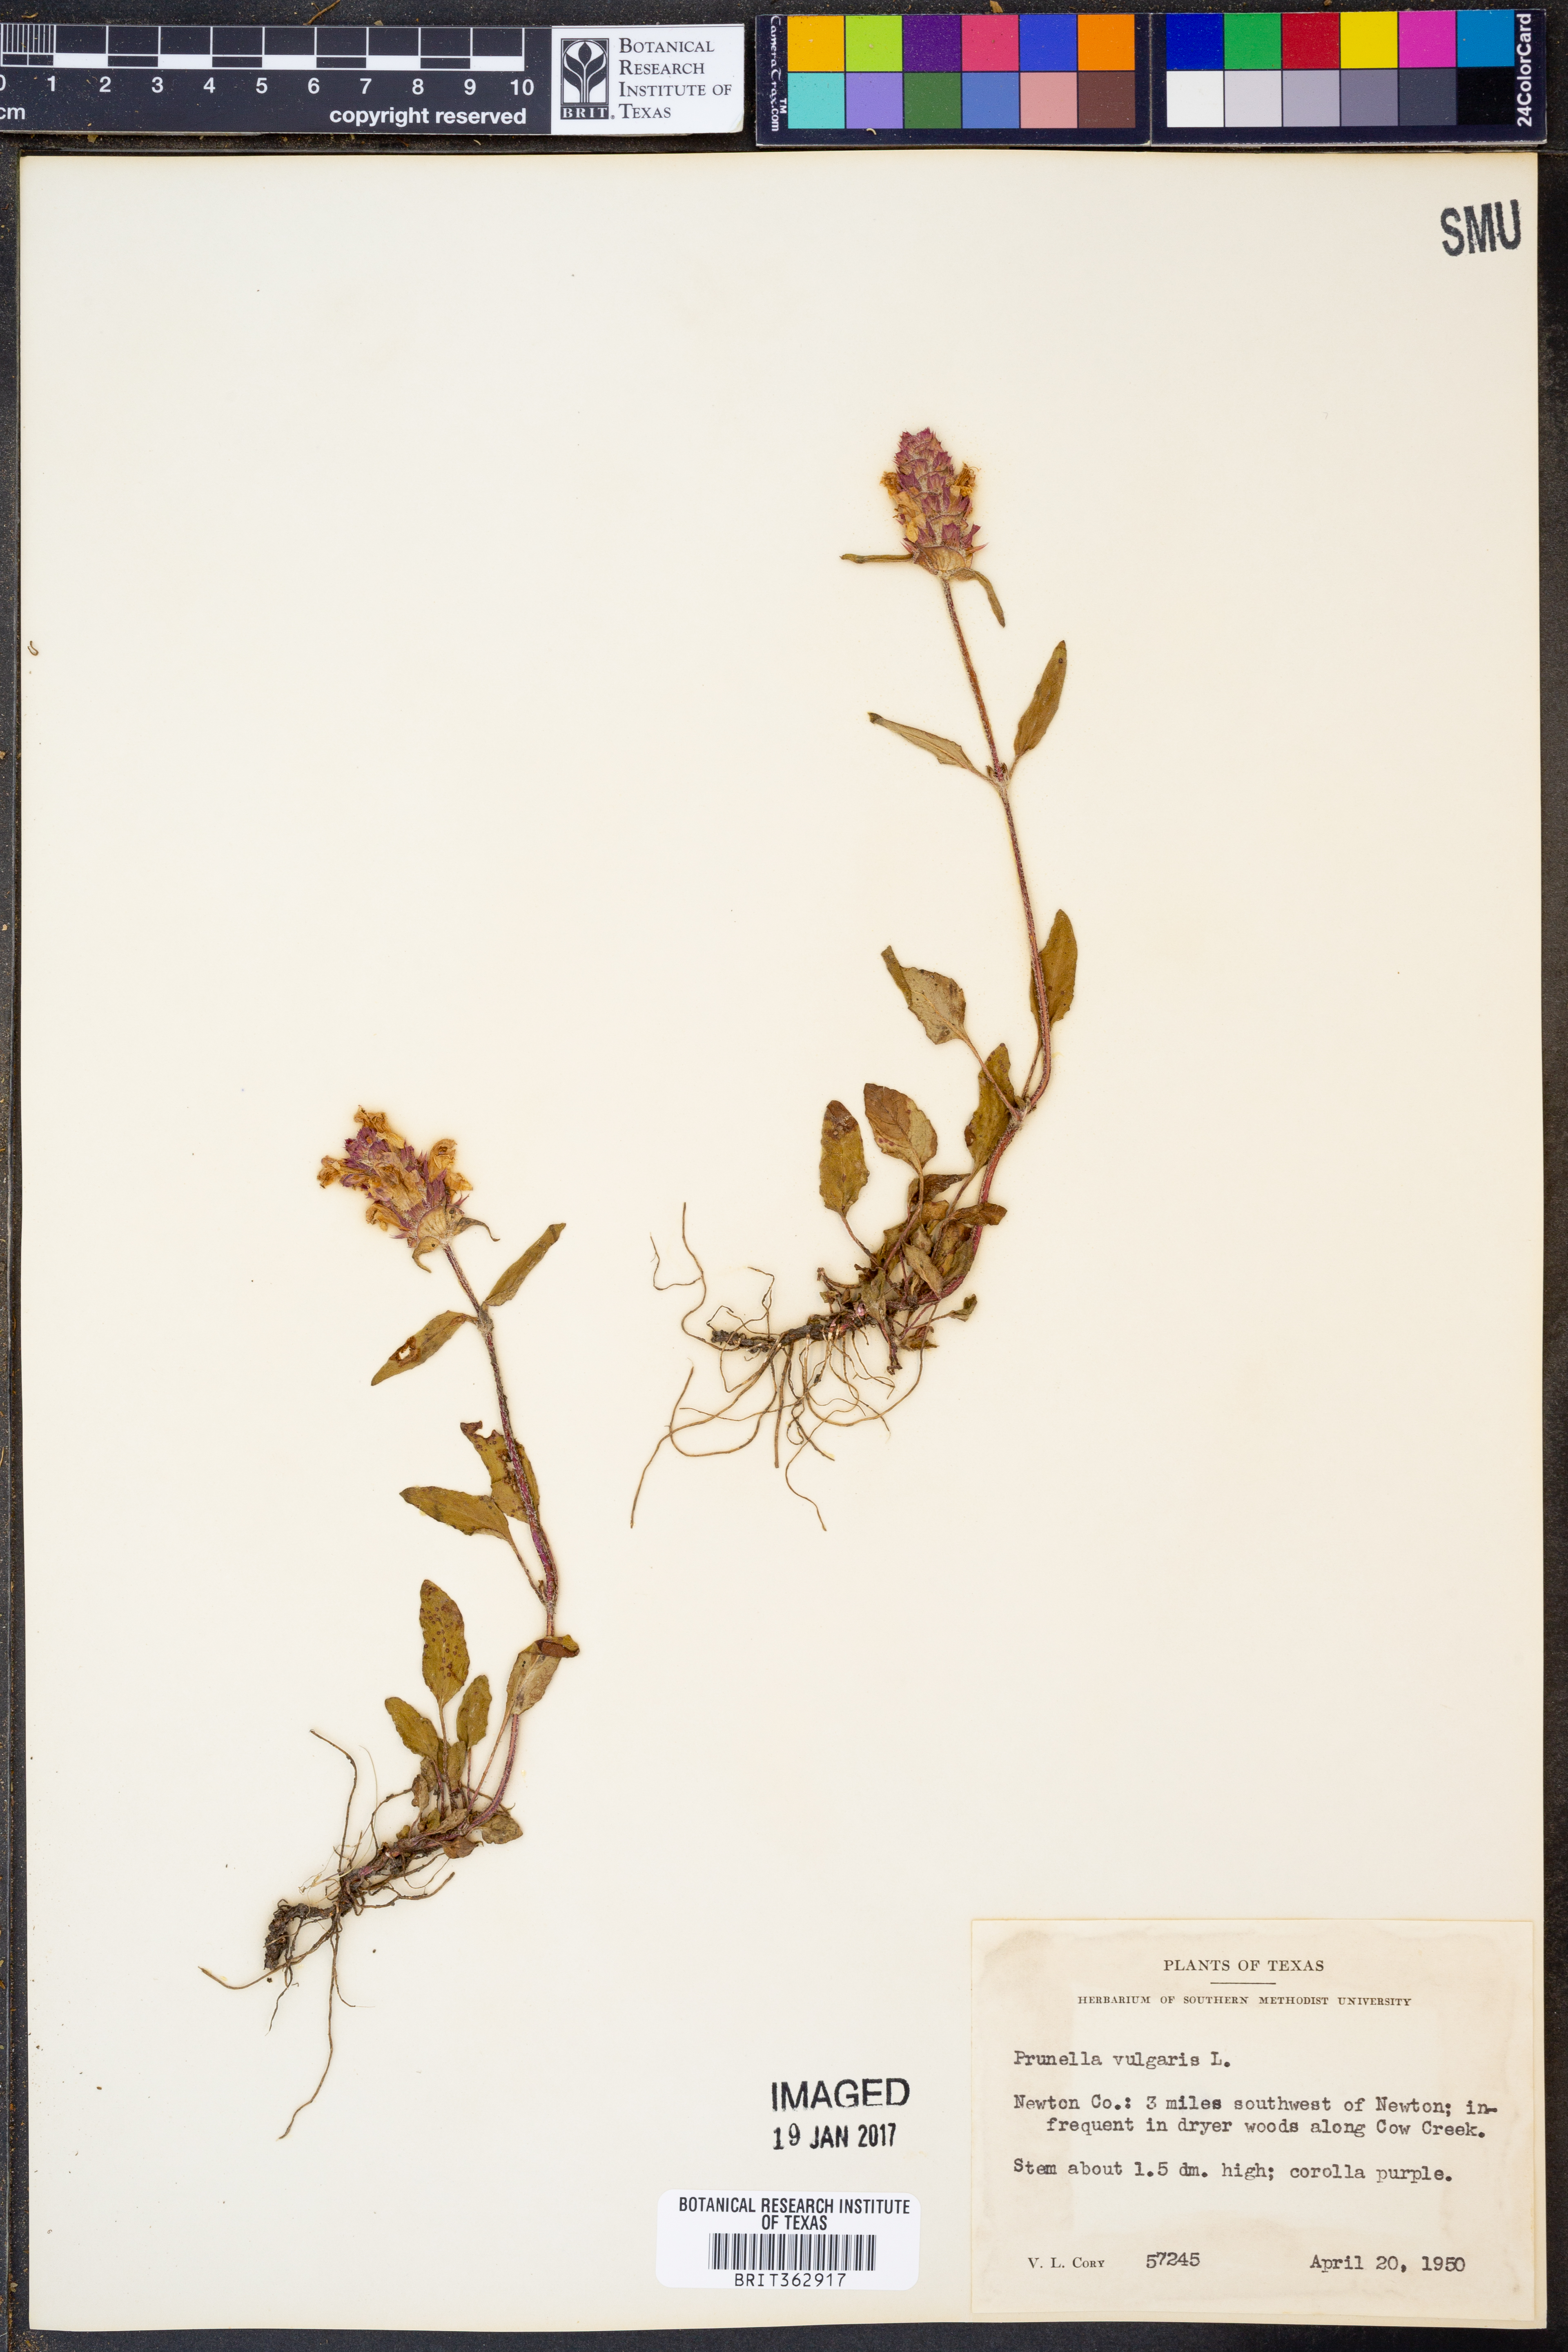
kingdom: Plantae
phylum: Tracheophyta
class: Magnoliopsida
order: Lamiales
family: Lamiaceae
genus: Prunella
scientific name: Prunella vulgaris
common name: Heal-all
